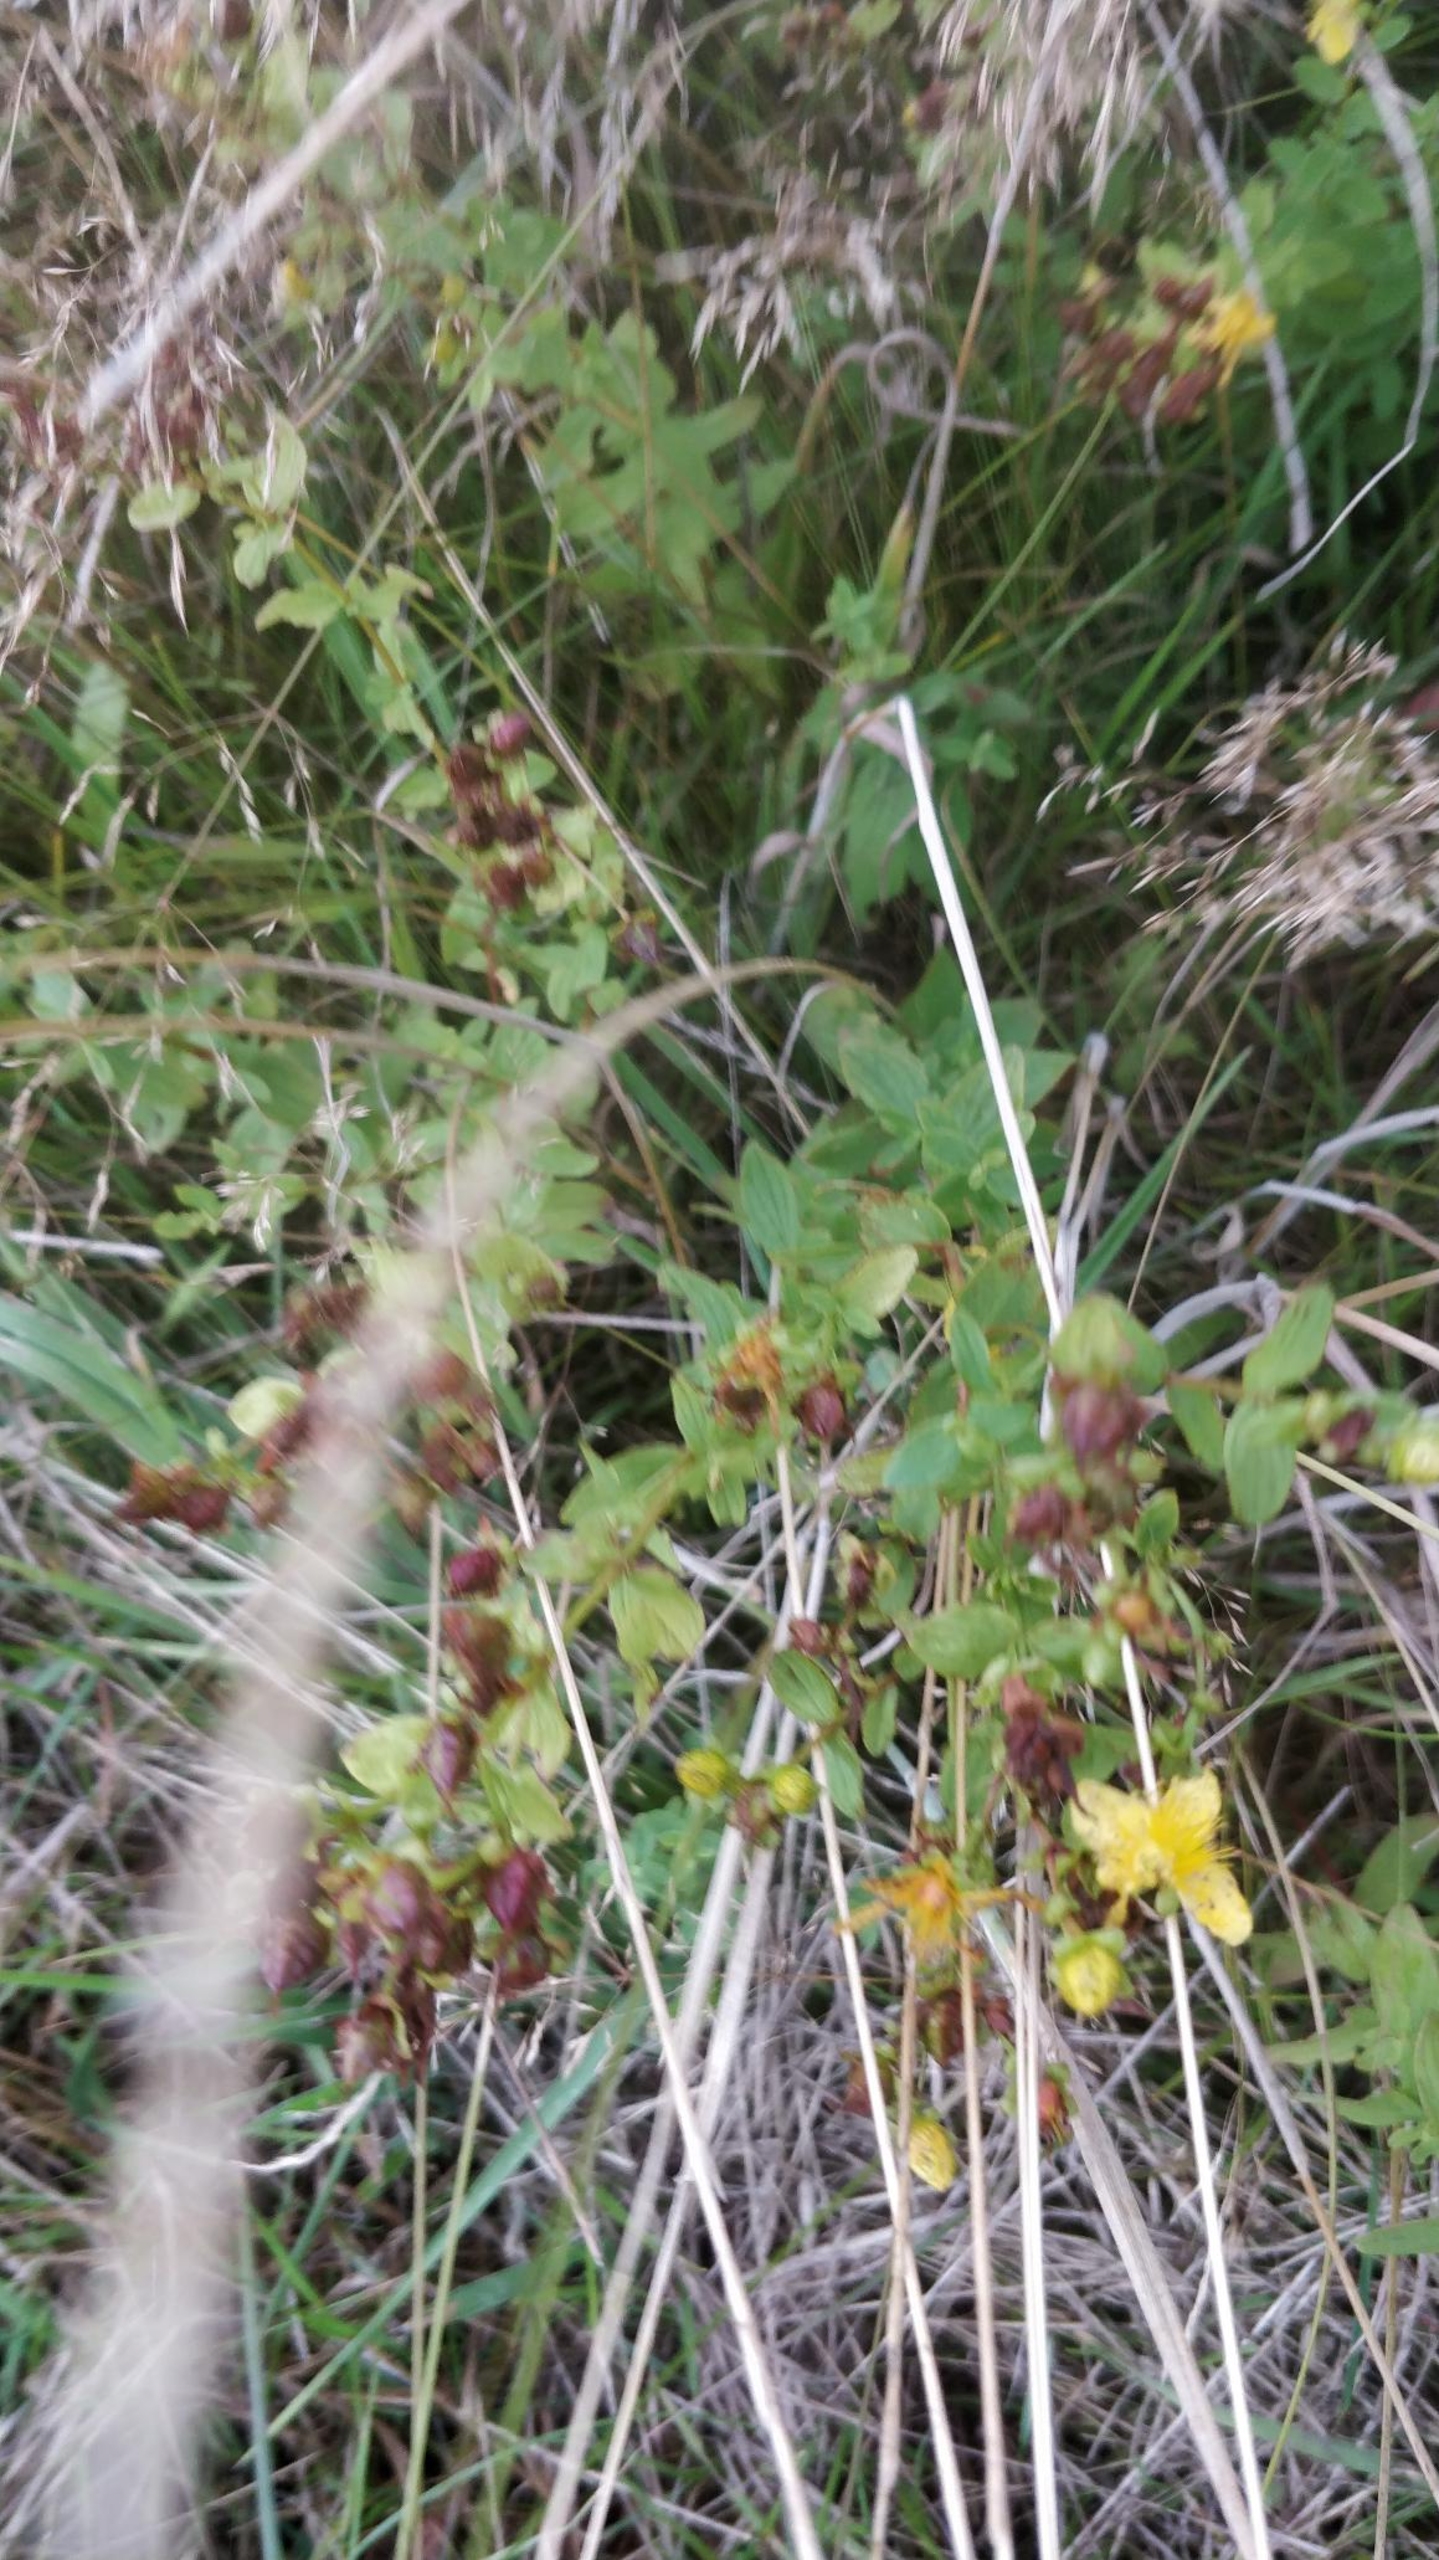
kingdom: Plantae
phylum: Tracheophyta
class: Magnoliopsida
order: Malpighiales
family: Hypericaceae
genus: Hypericum
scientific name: Hypericum maculatum
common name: Kantet perikon
